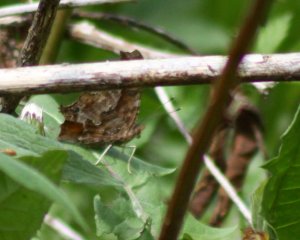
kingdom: Animalia
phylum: Arthropoda
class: Insecta
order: Lepidoptera
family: Nymphalidae
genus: Polygonia
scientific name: Polygonia comma
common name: Eastern Comma
